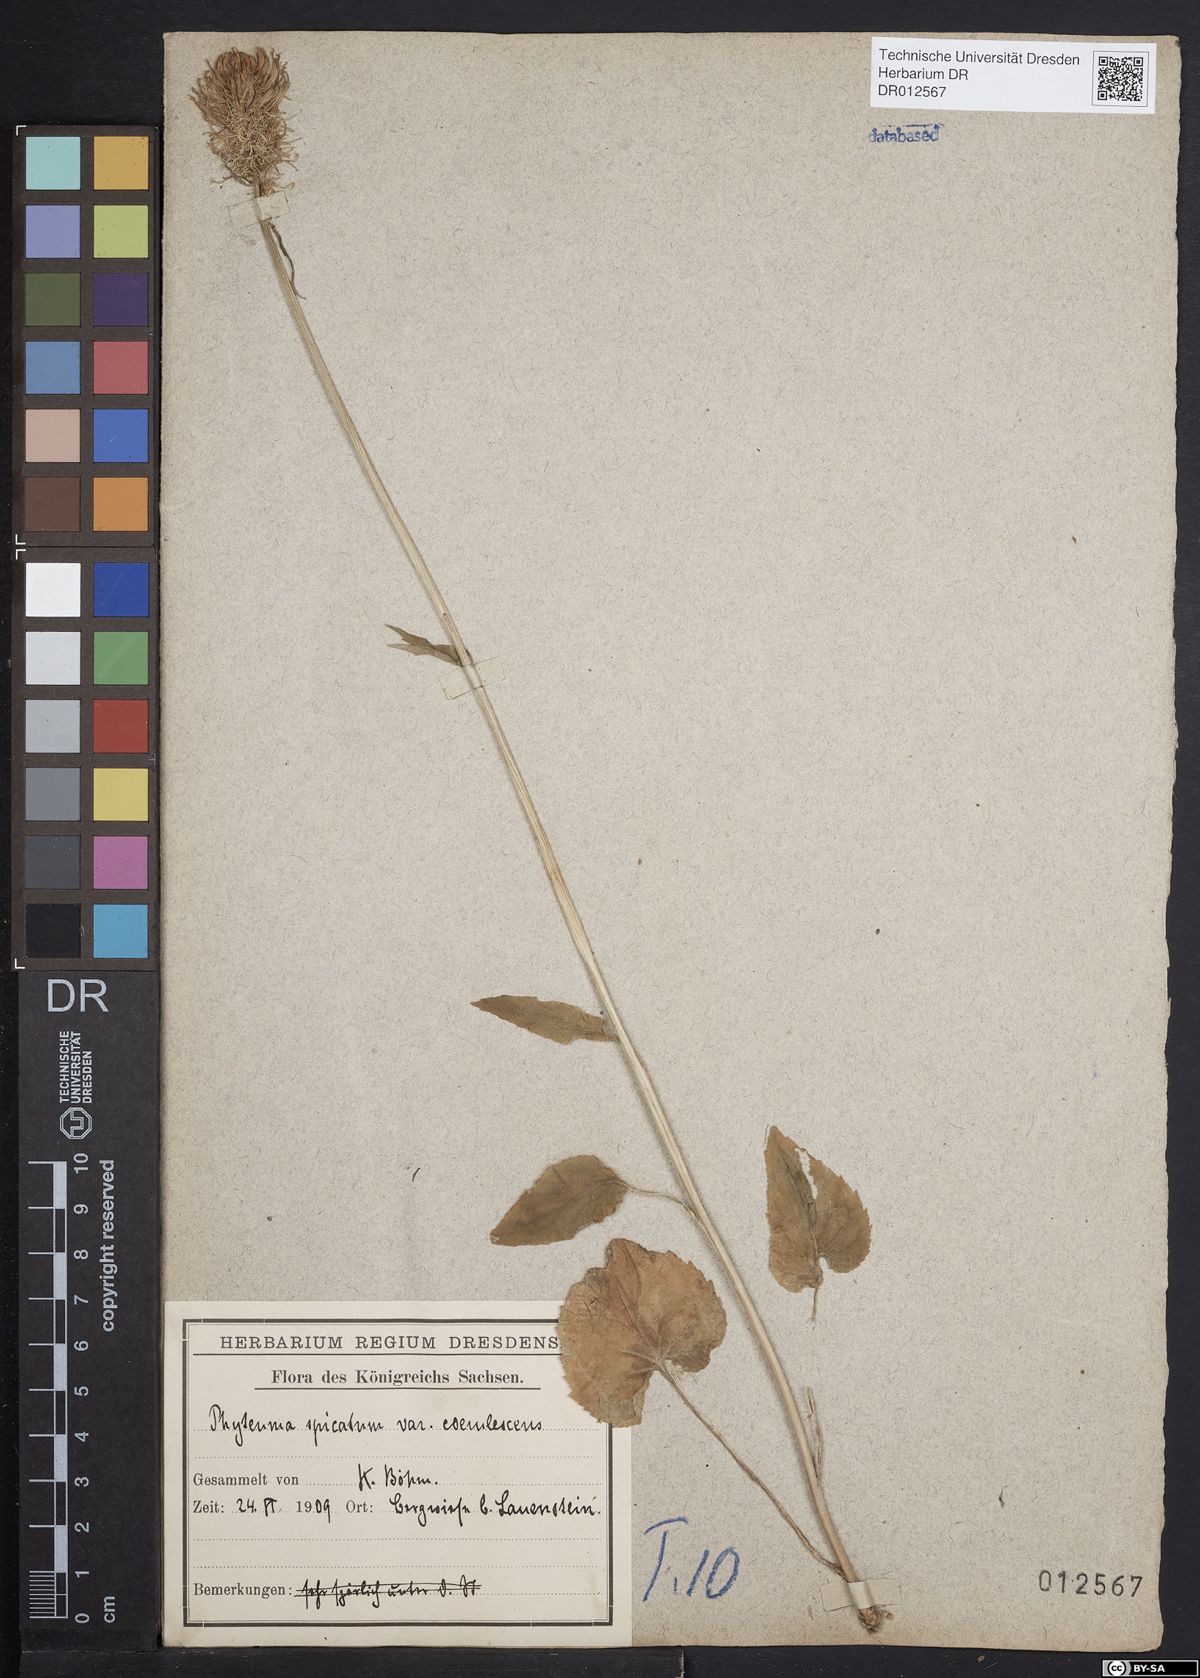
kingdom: Plantae
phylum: Tracheophyta
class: Magnoliopsida
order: Asterales
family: Campanulaceae
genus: Phyteuma
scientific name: Phyteuma spicatum
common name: Spiked rampion
